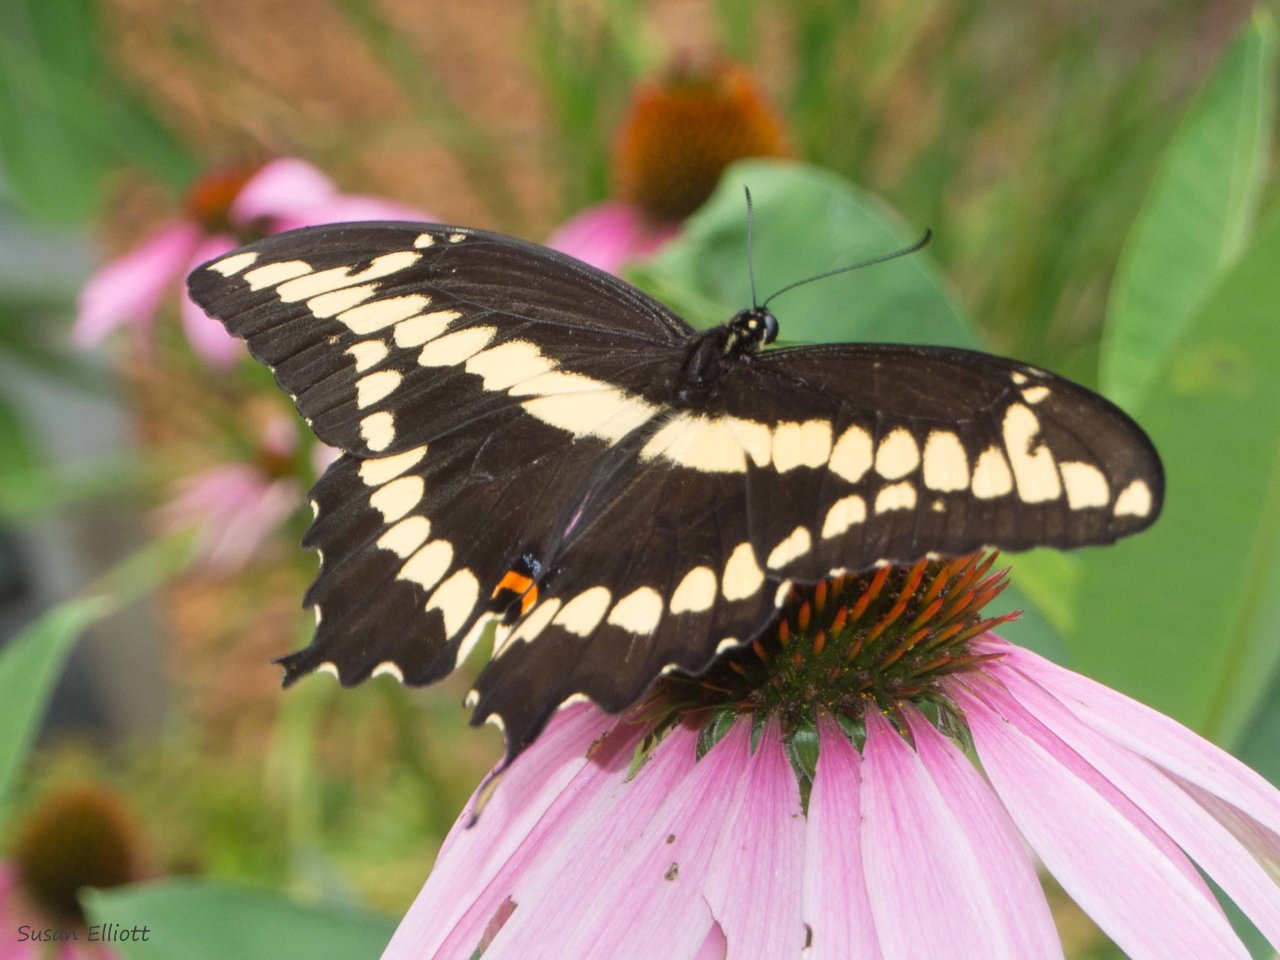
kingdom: Animalia
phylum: Arthropoda
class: Insecta
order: Lepidoptera
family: Papilionidae
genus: Papilio
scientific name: Papilio cresphontes
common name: Eastern Giant Swallowtail
